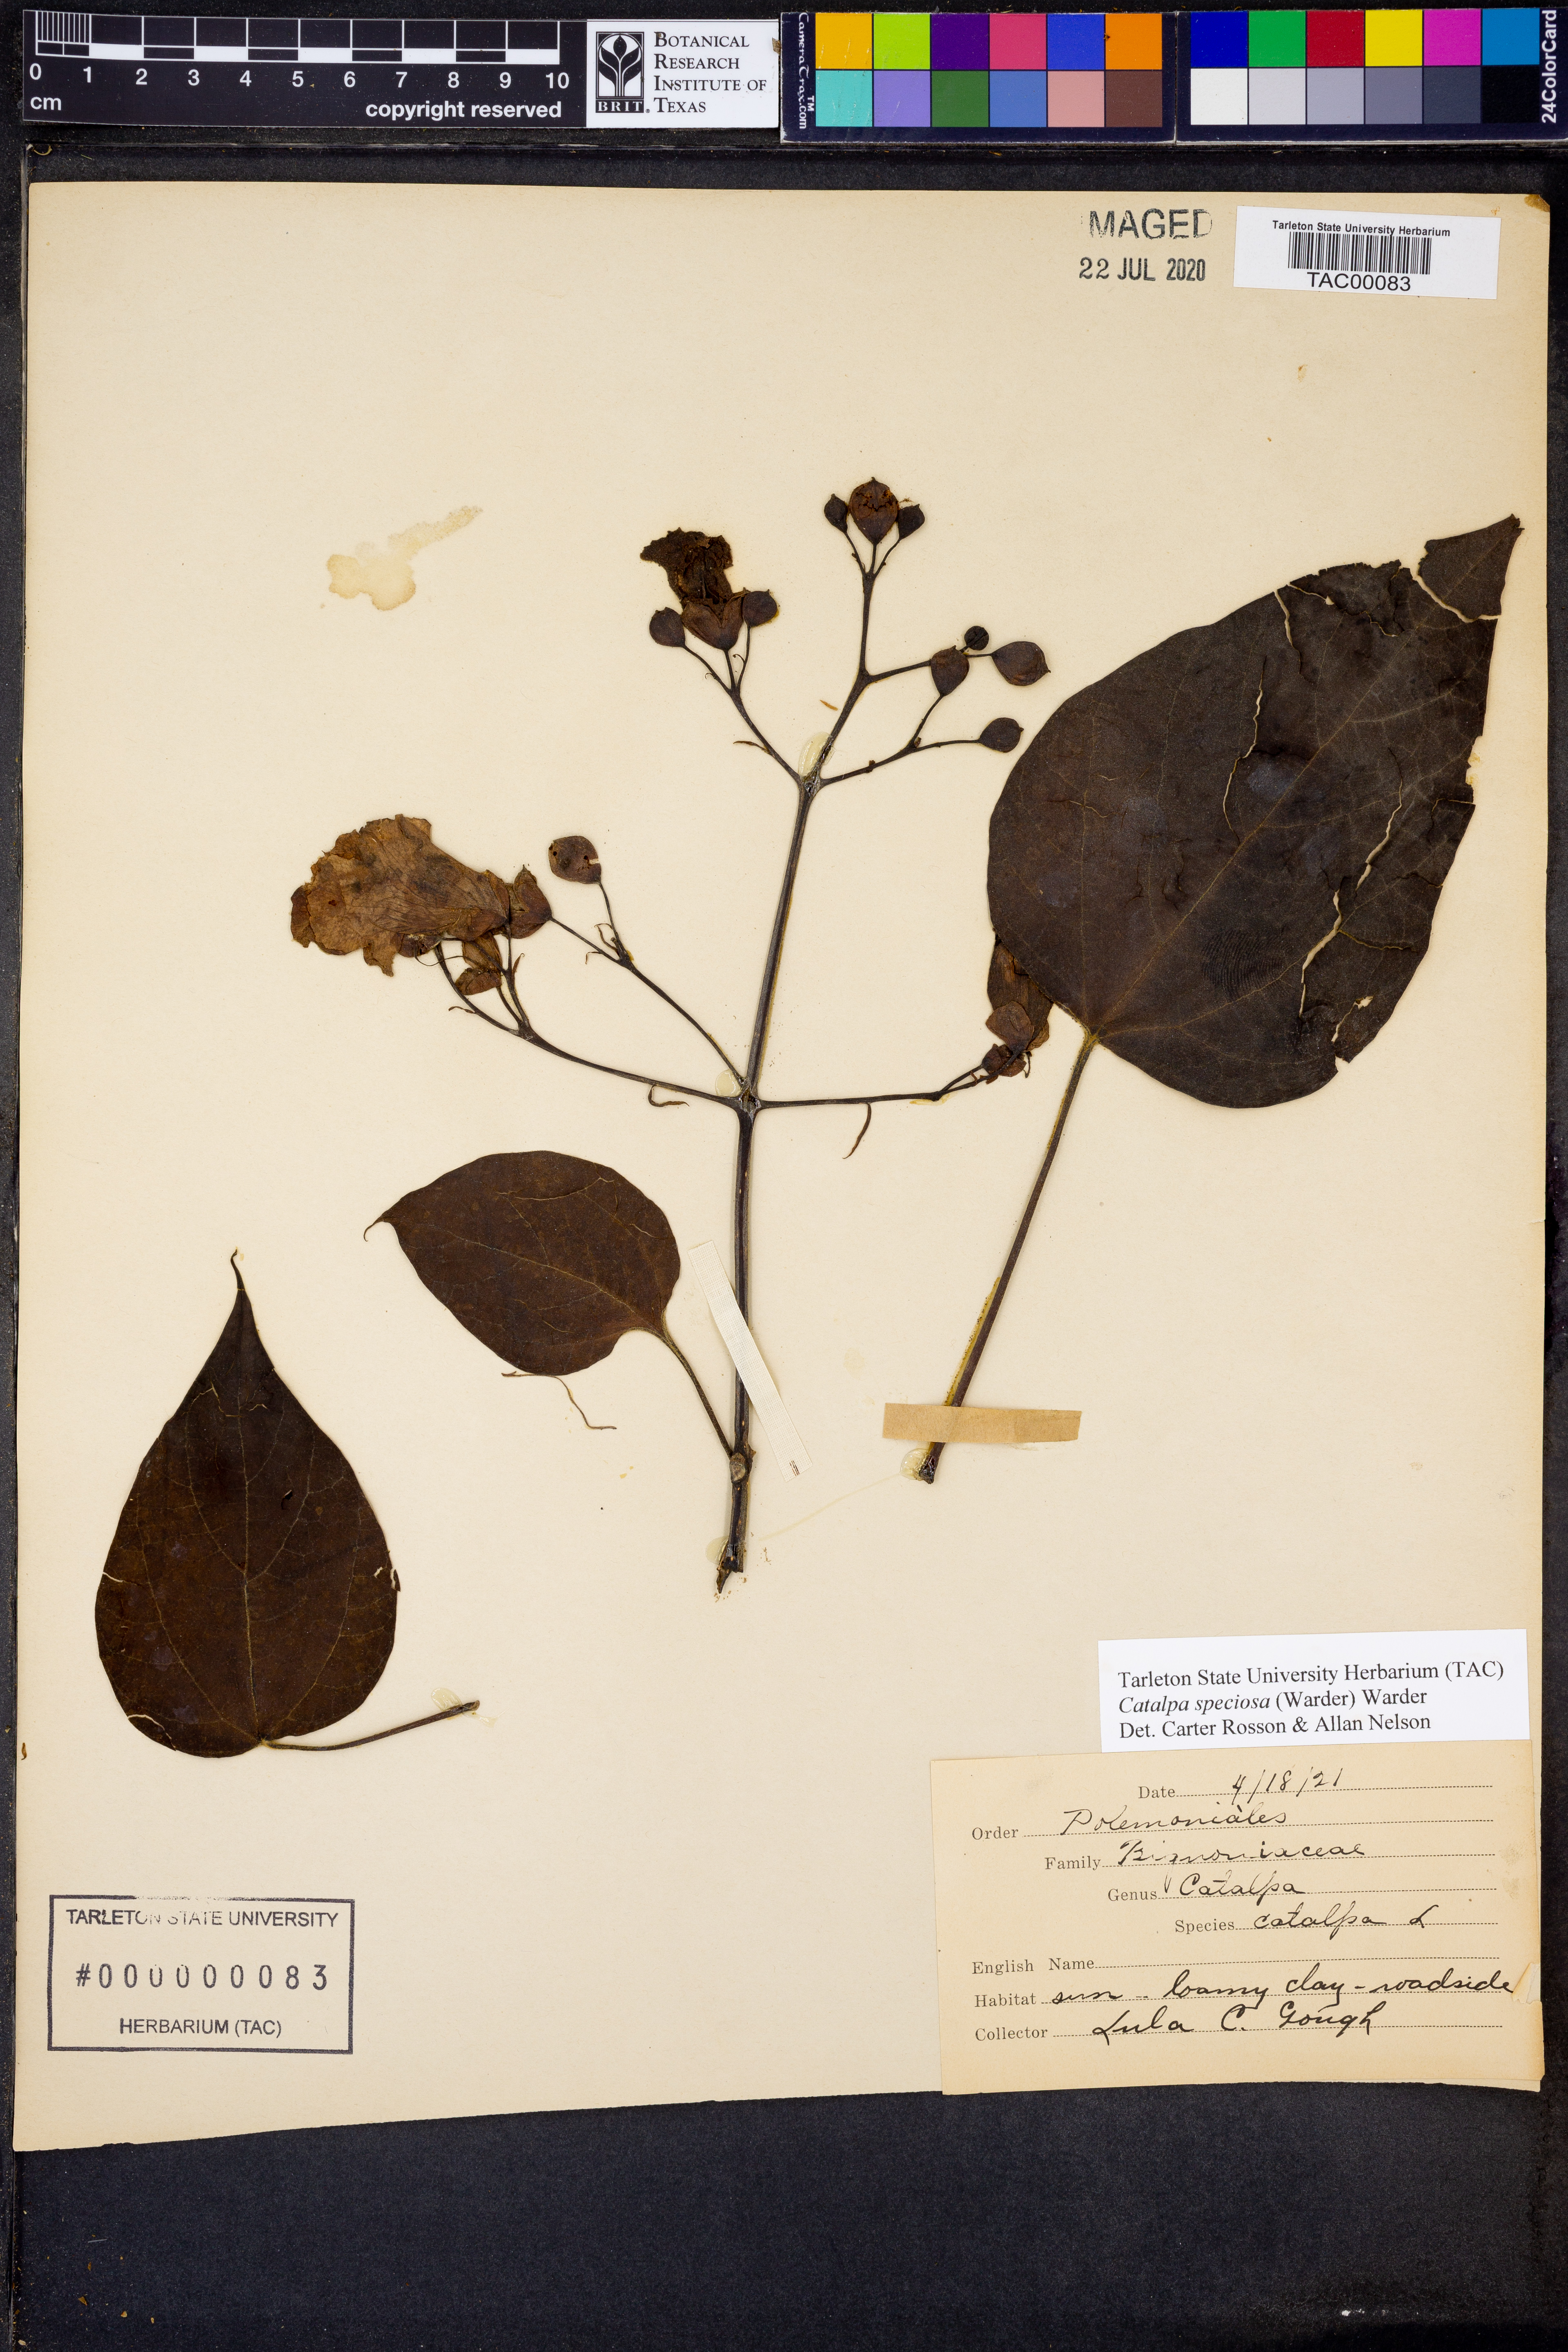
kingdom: Plantae
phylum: Tracheophyta
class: Magnoliopsida
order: Lamiales
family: Bignoniaceae
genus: Catalpa
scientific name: Catalpa speciosa
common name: Northern catalpa
